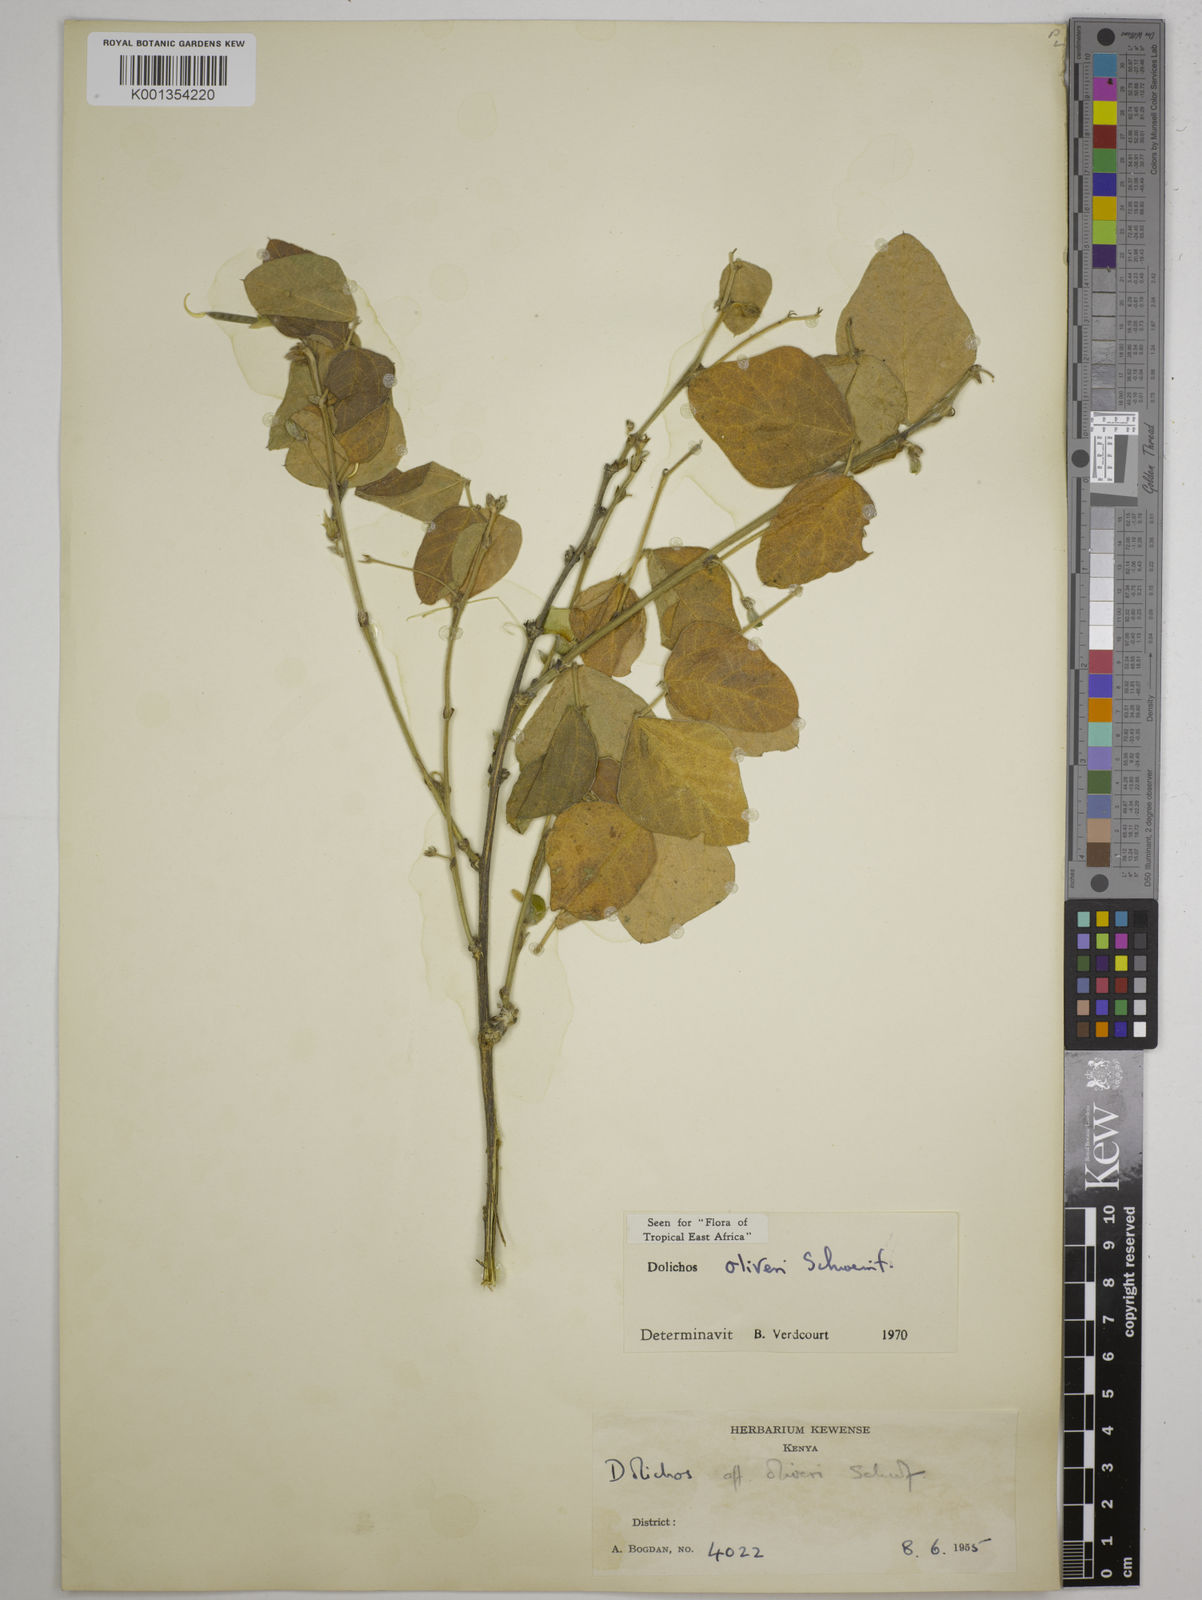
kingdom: Plantae
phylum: Tracheophyta
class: Magnoliopsida
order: Fabales
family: Fabaceae
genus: Dolichos
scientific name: Dolichos
